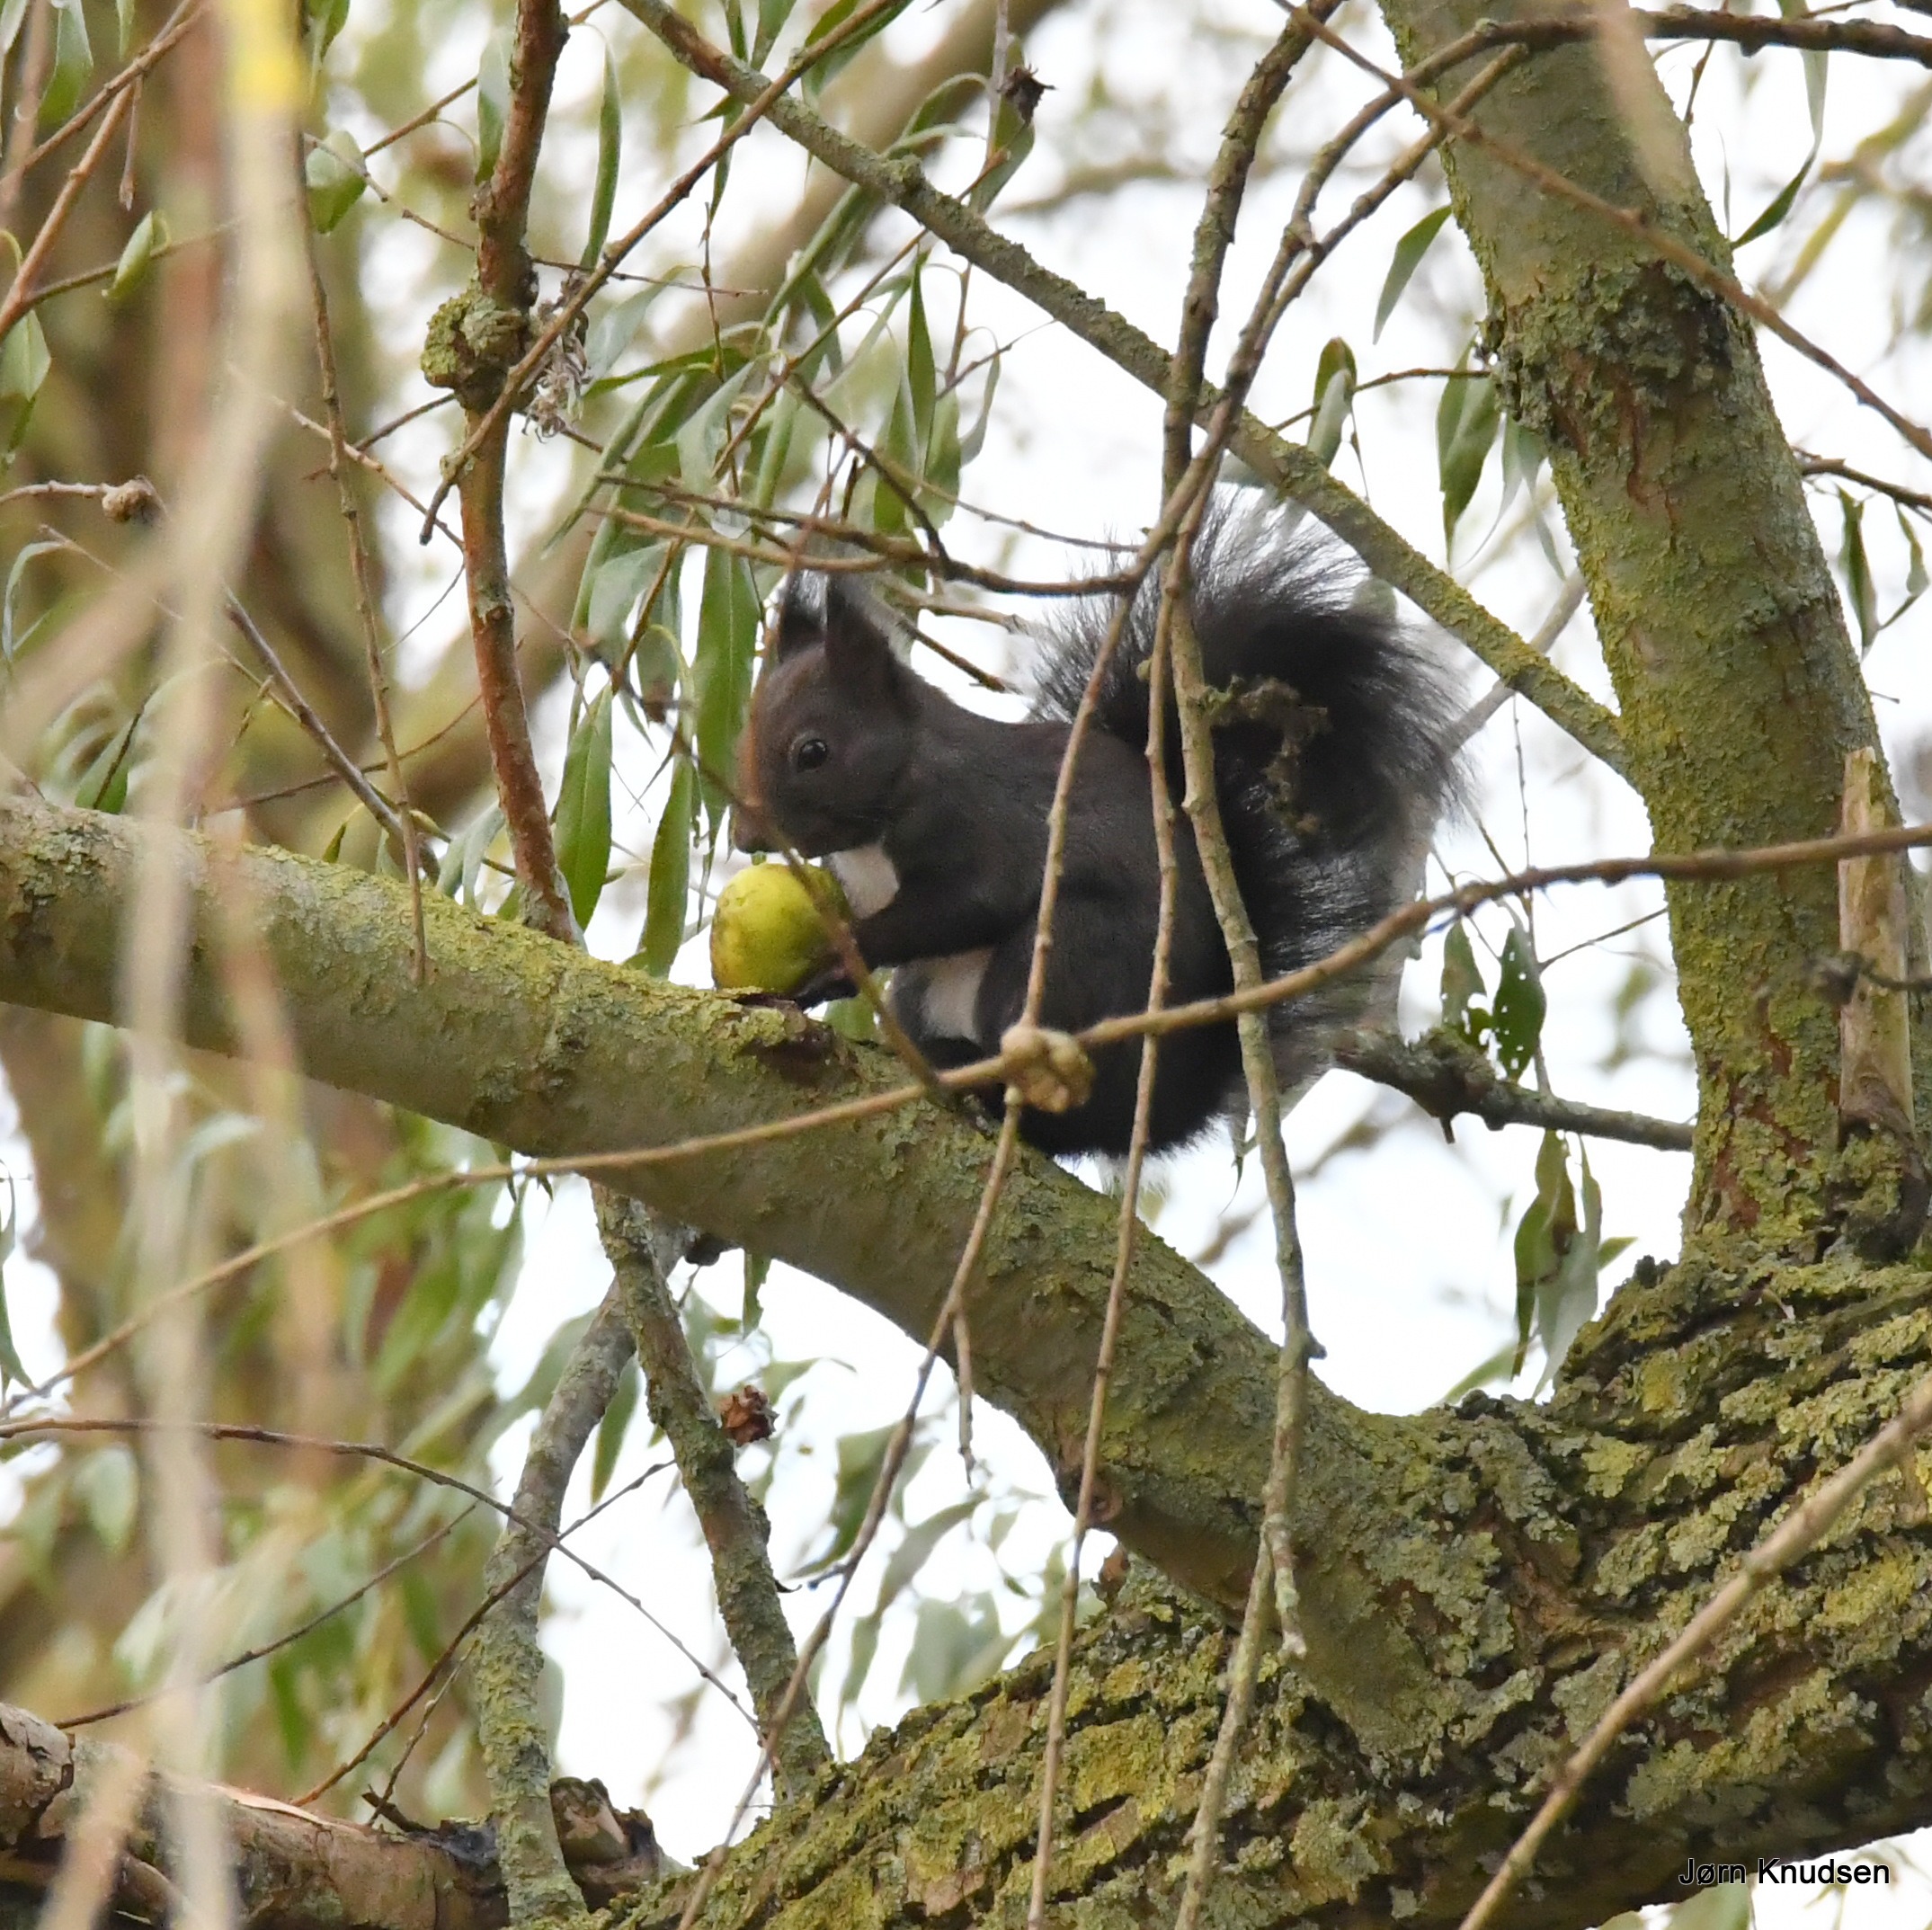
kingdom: Animalia
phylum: Chordata
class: Mammalia
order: Rodentia
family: Sciuridae
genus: Sciurus
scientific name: Sciurus vulgaris
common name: Egern
